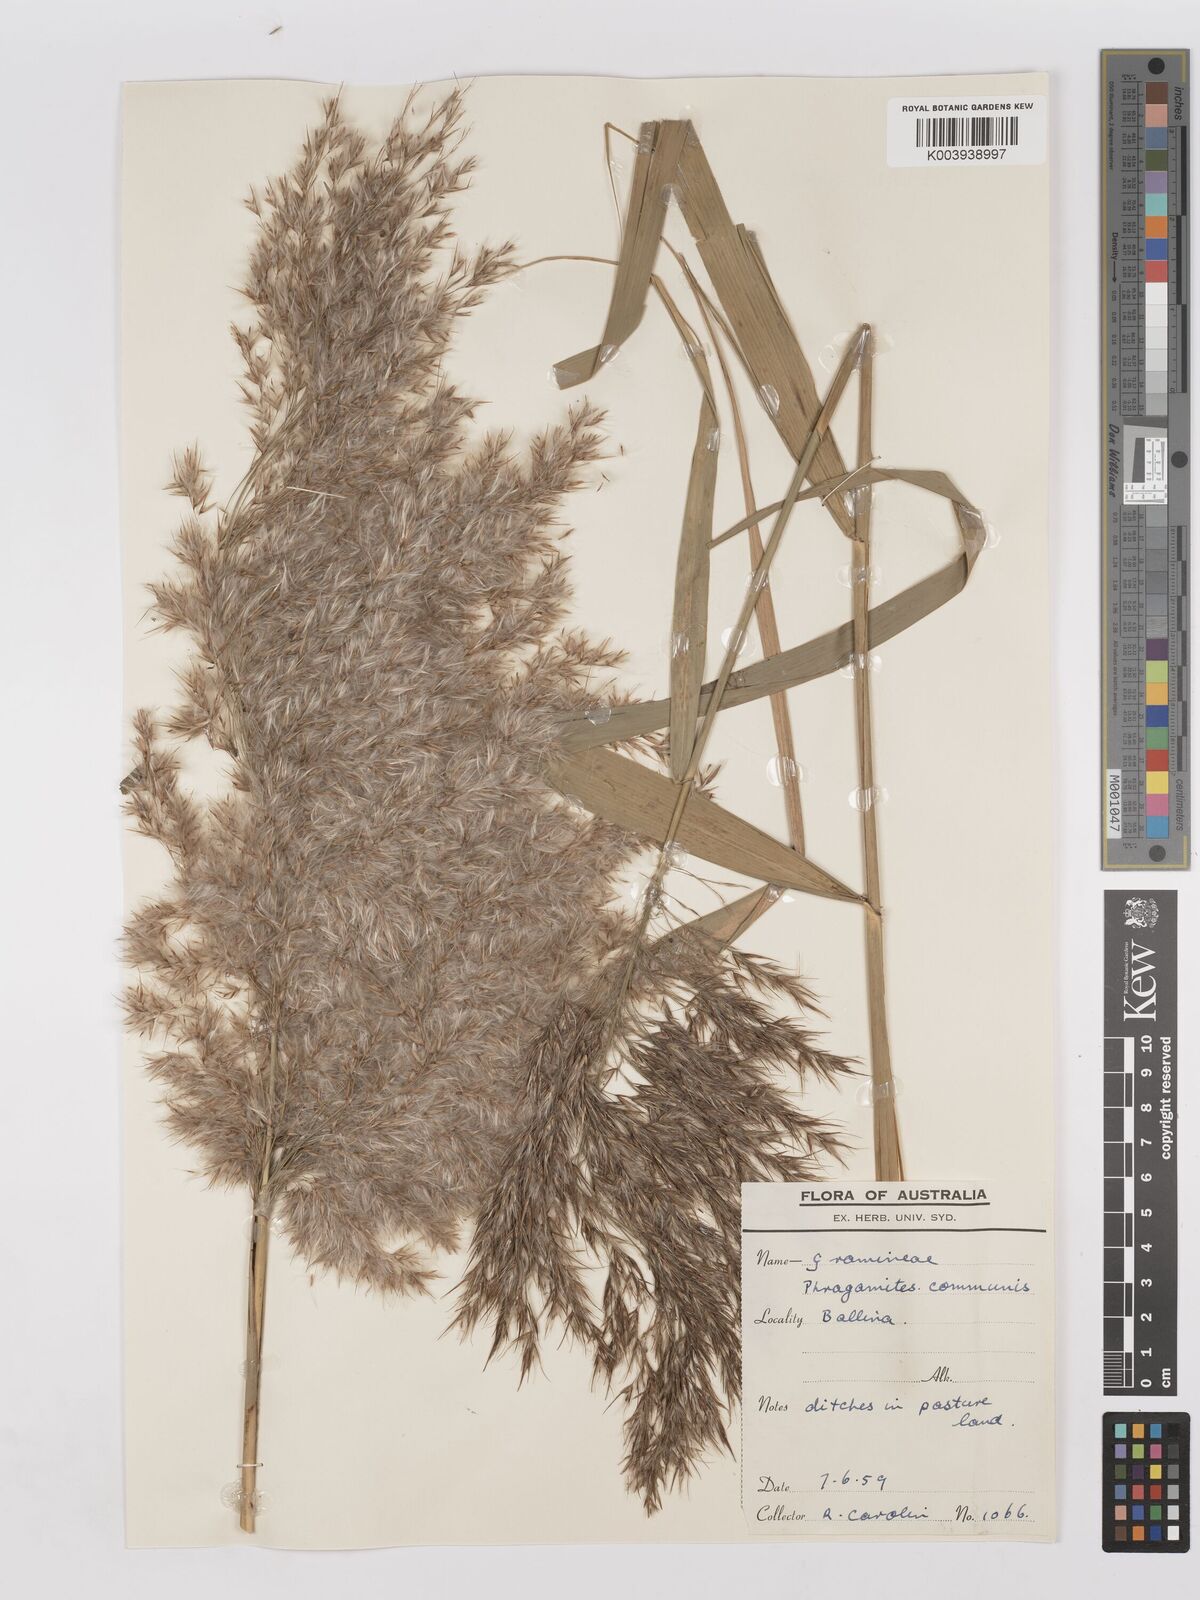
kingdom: Plantae
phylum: Tracheophyta
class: Liliopsida
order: Poales
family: Poaceae
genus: Phragmites
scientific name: Phragmites australis
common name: Common reed
